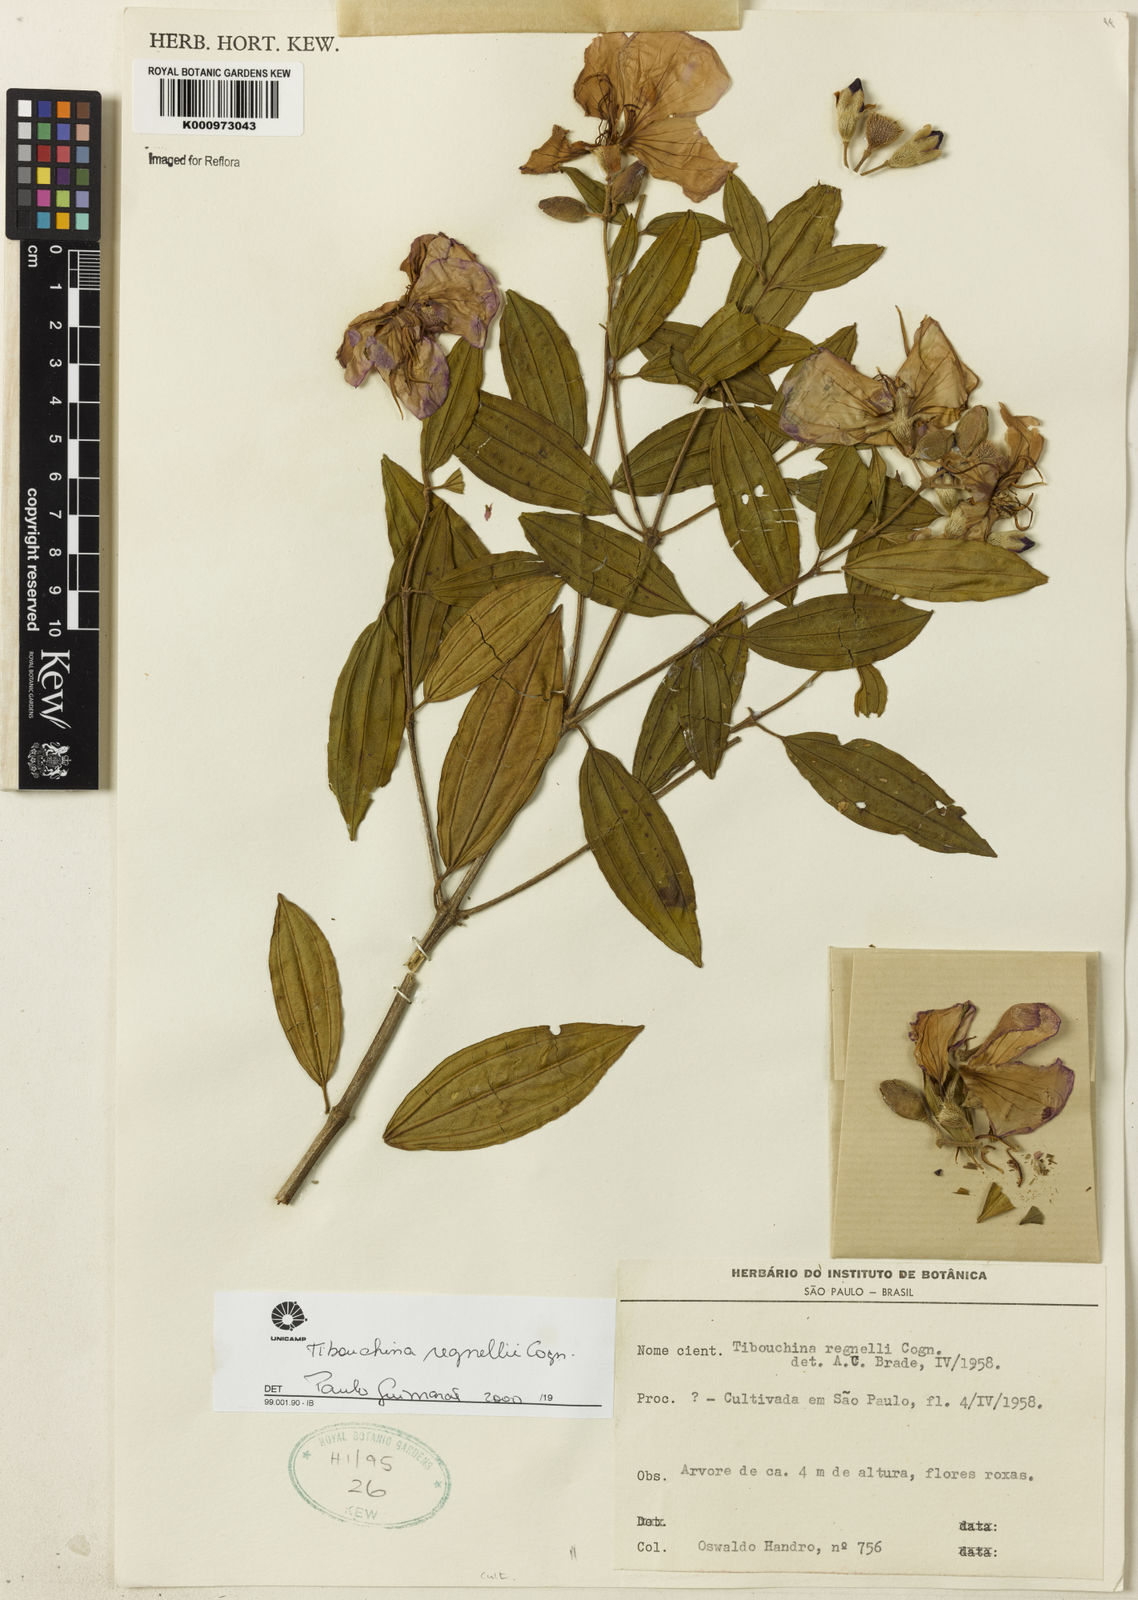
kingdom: Plantae
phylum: Tracheophyta
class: Magnoliopsida
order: Myrtales
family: Melastomataceae
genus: Pleroma
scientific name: Pleroma andersregnellii
